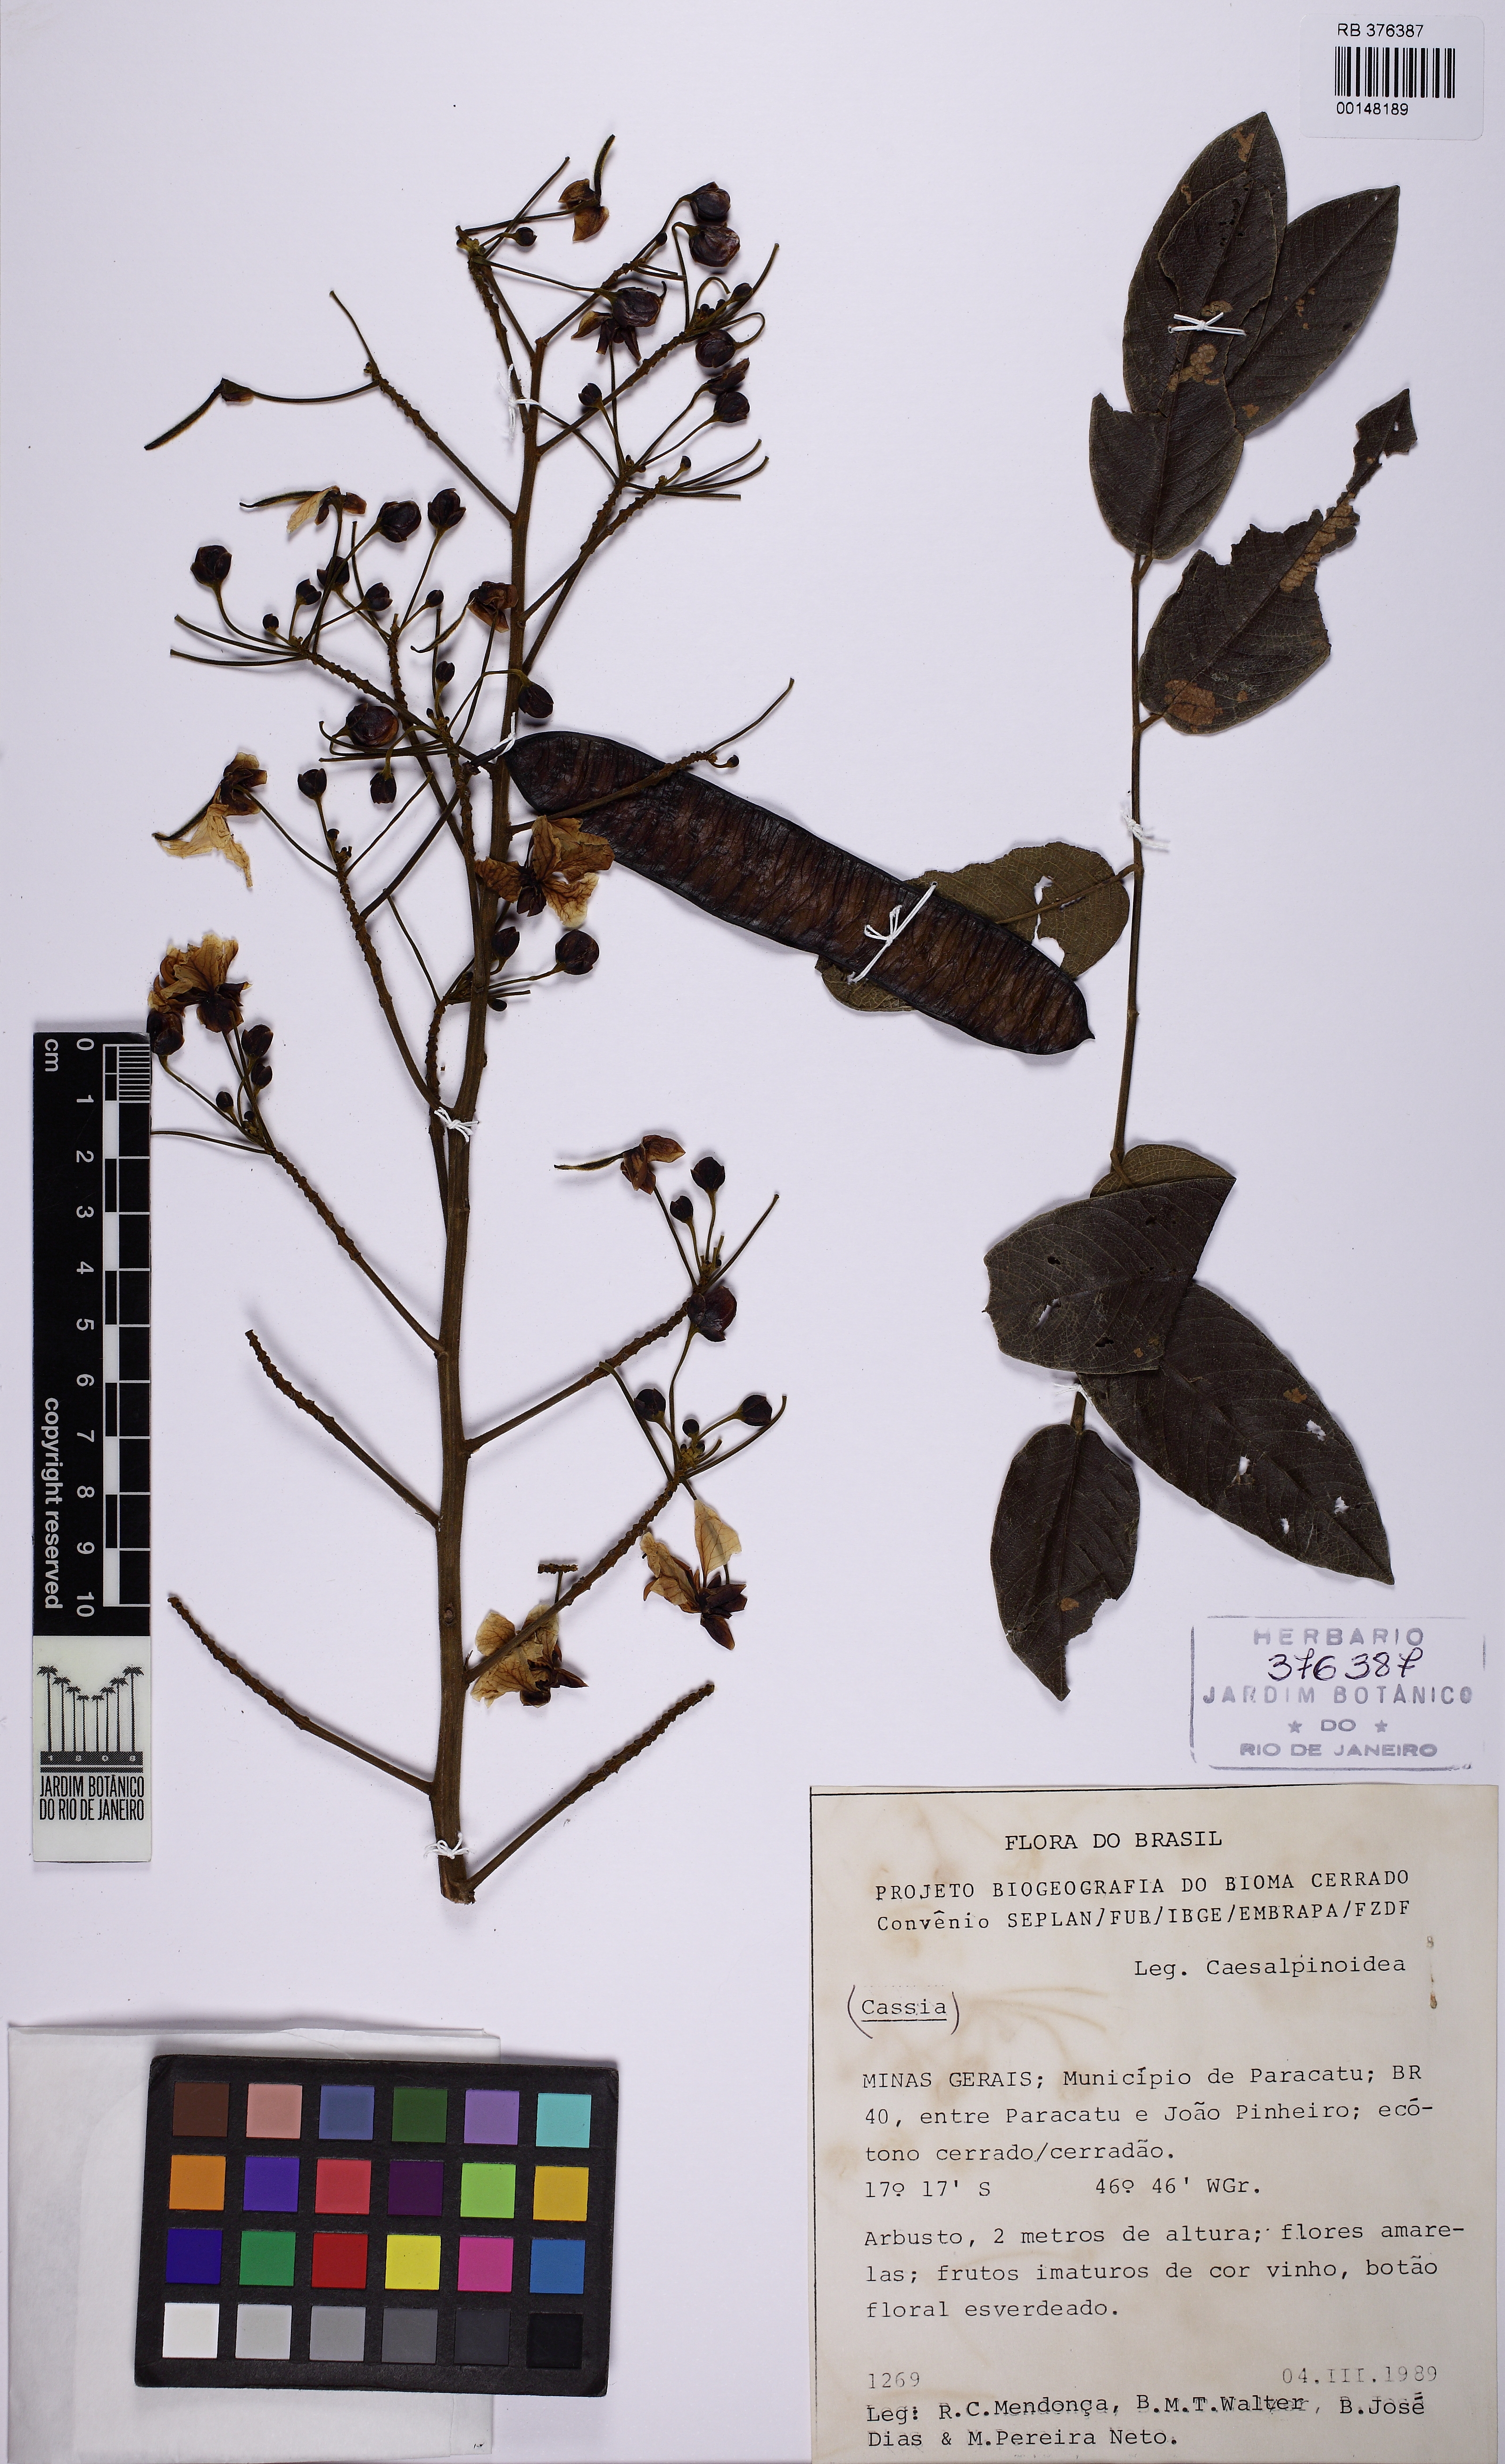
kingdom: Plantae
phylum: Tracheophyta
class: Magnoliopsida
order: Fabales
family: Fabaceae
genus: Cassia
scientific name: Cassia
